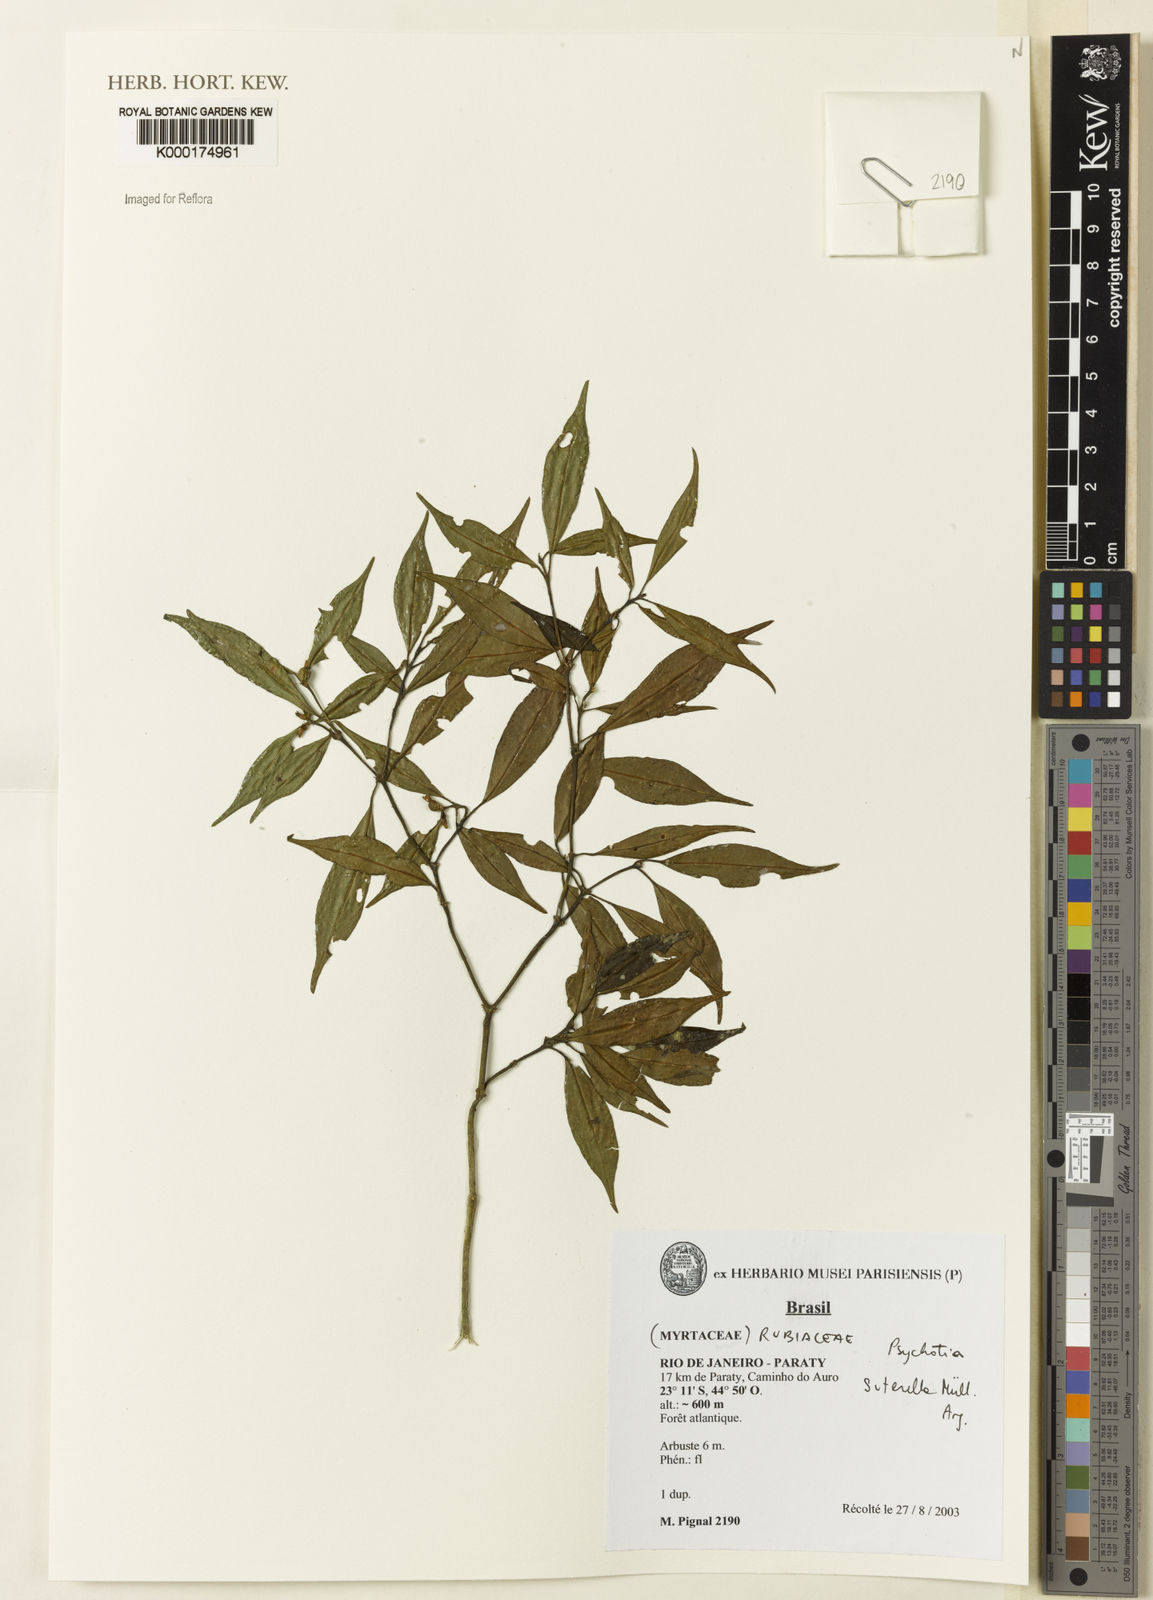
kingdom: Plantae
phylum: Tracheophyta
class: Magnoliopsida
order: Gentianales
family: Rubiaceae
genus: Psychotria
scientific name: Psychotria
